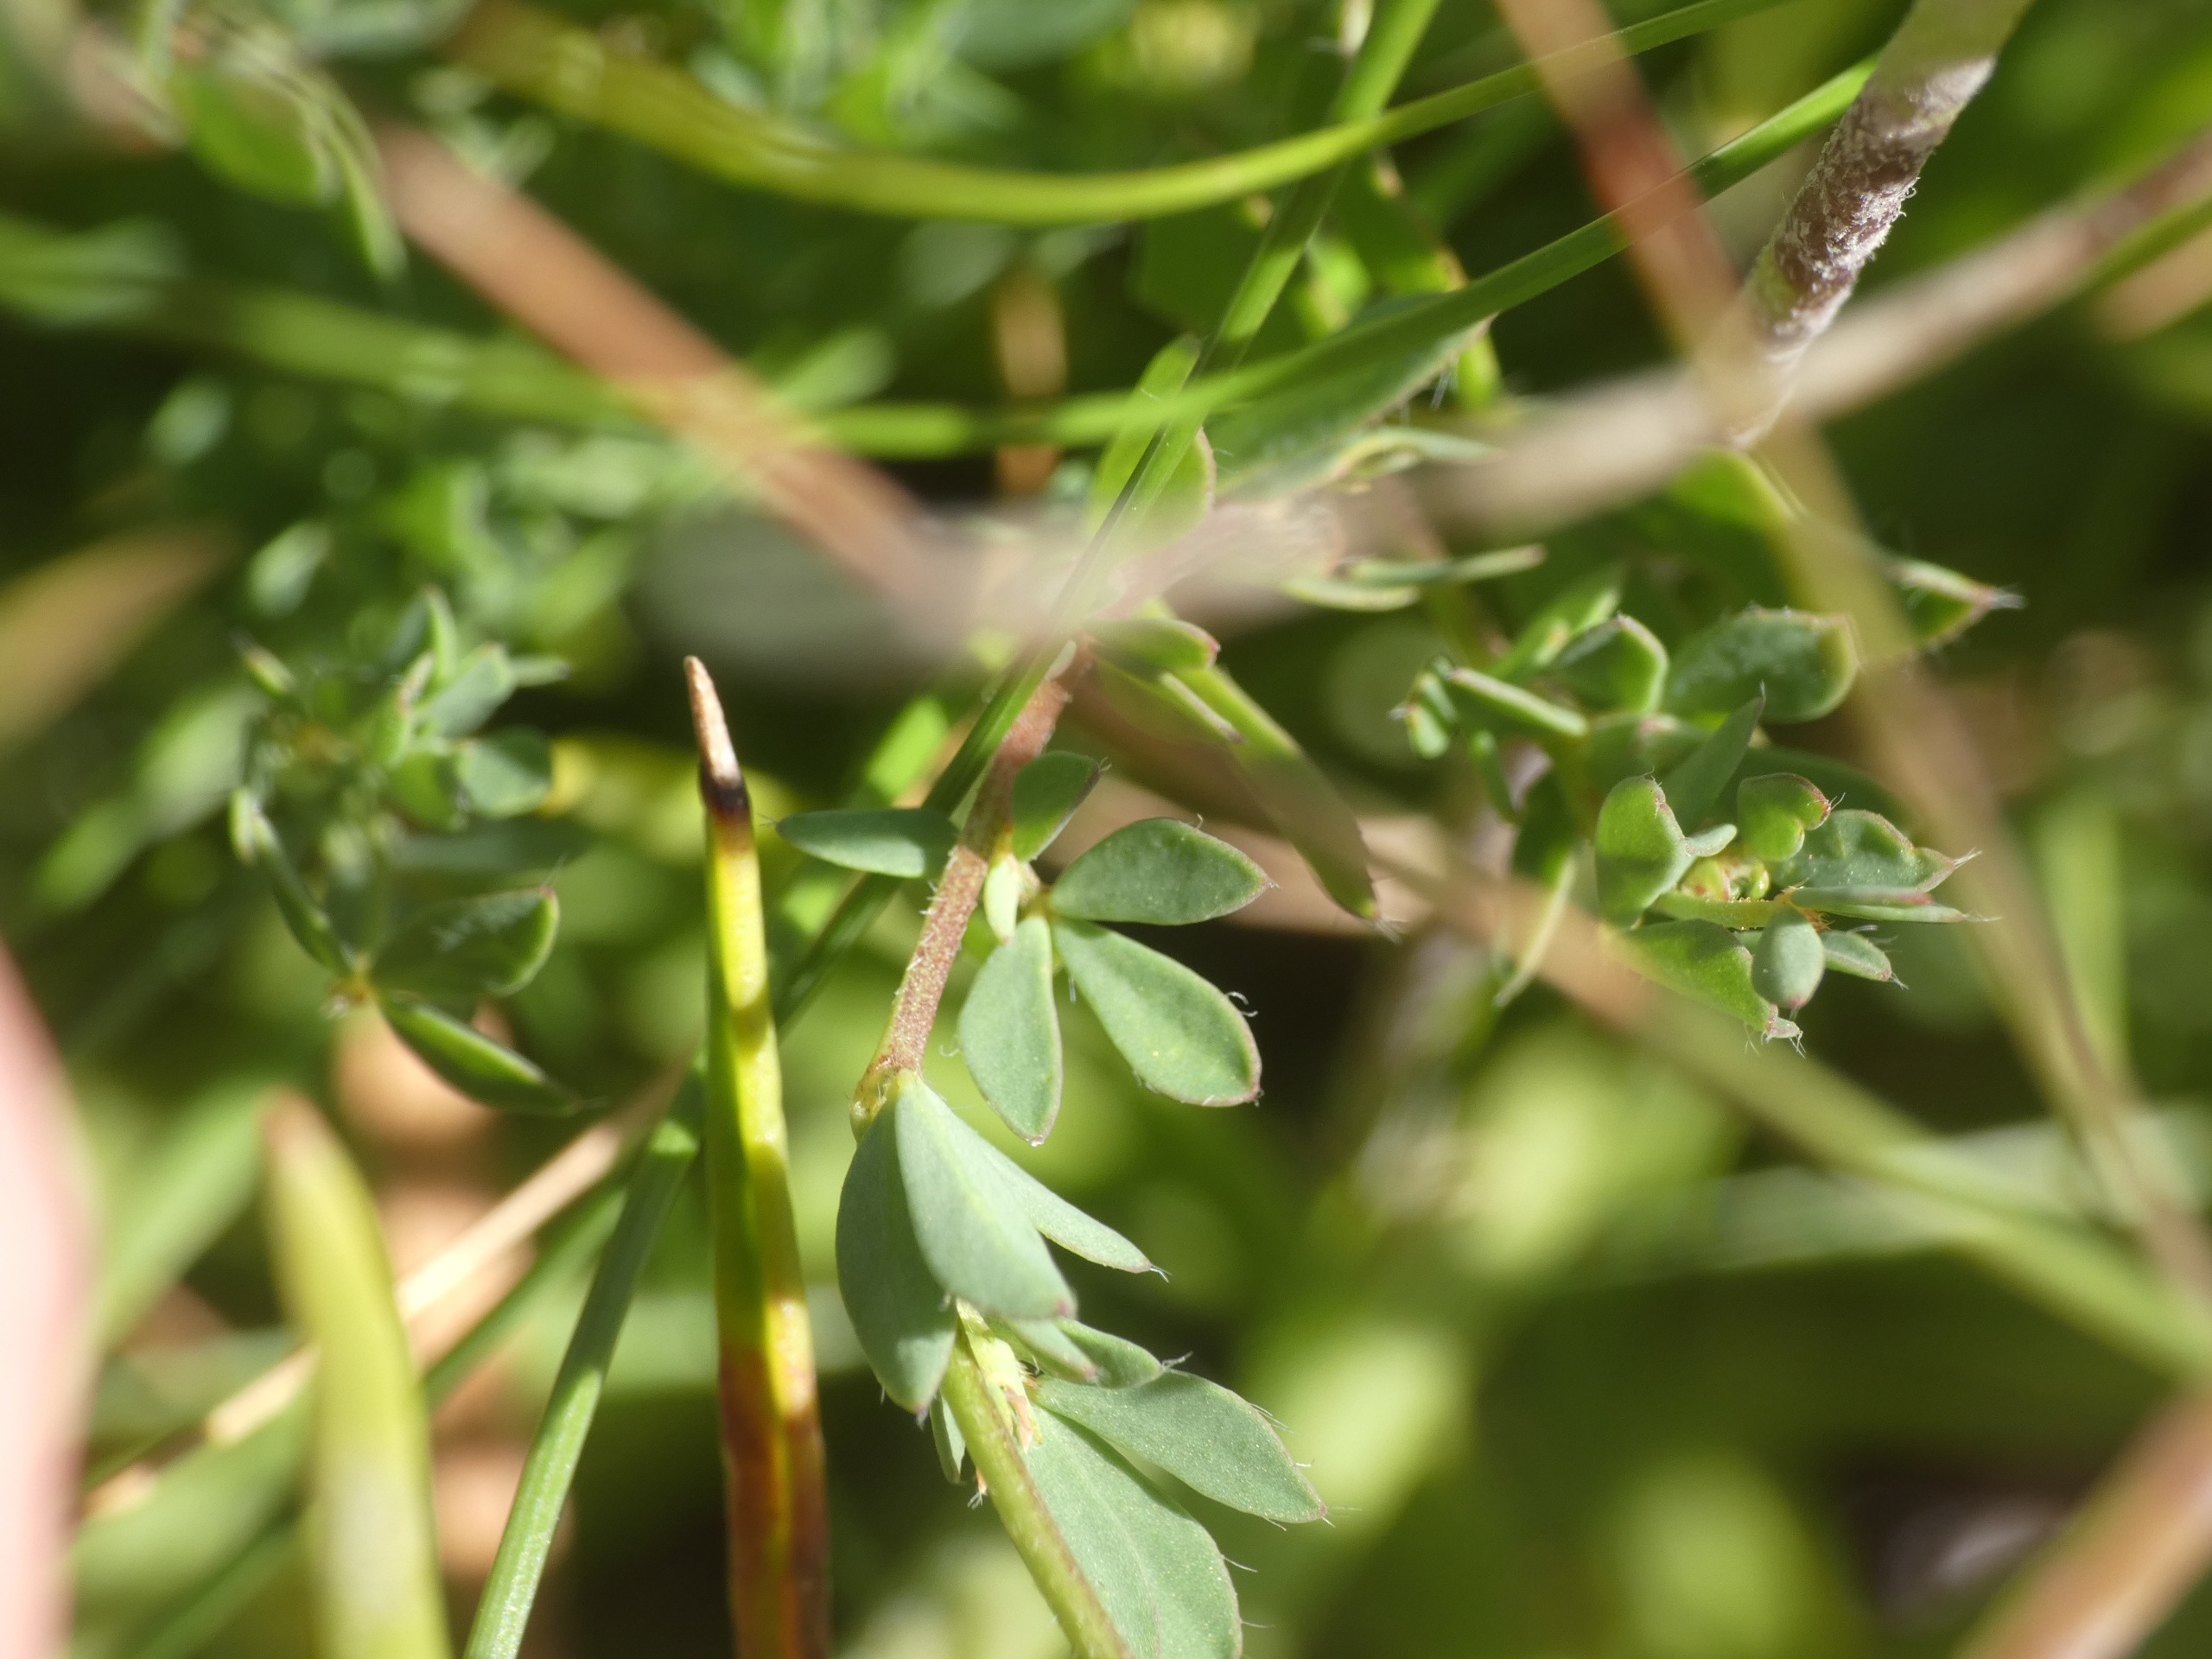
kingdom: Plantae
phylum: Tracheophyta
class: Magnoliopsida
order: Fabales
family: Fabaceae
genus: Lotus
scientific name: Lotus corniculatus
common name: Almindelig kællingetand
